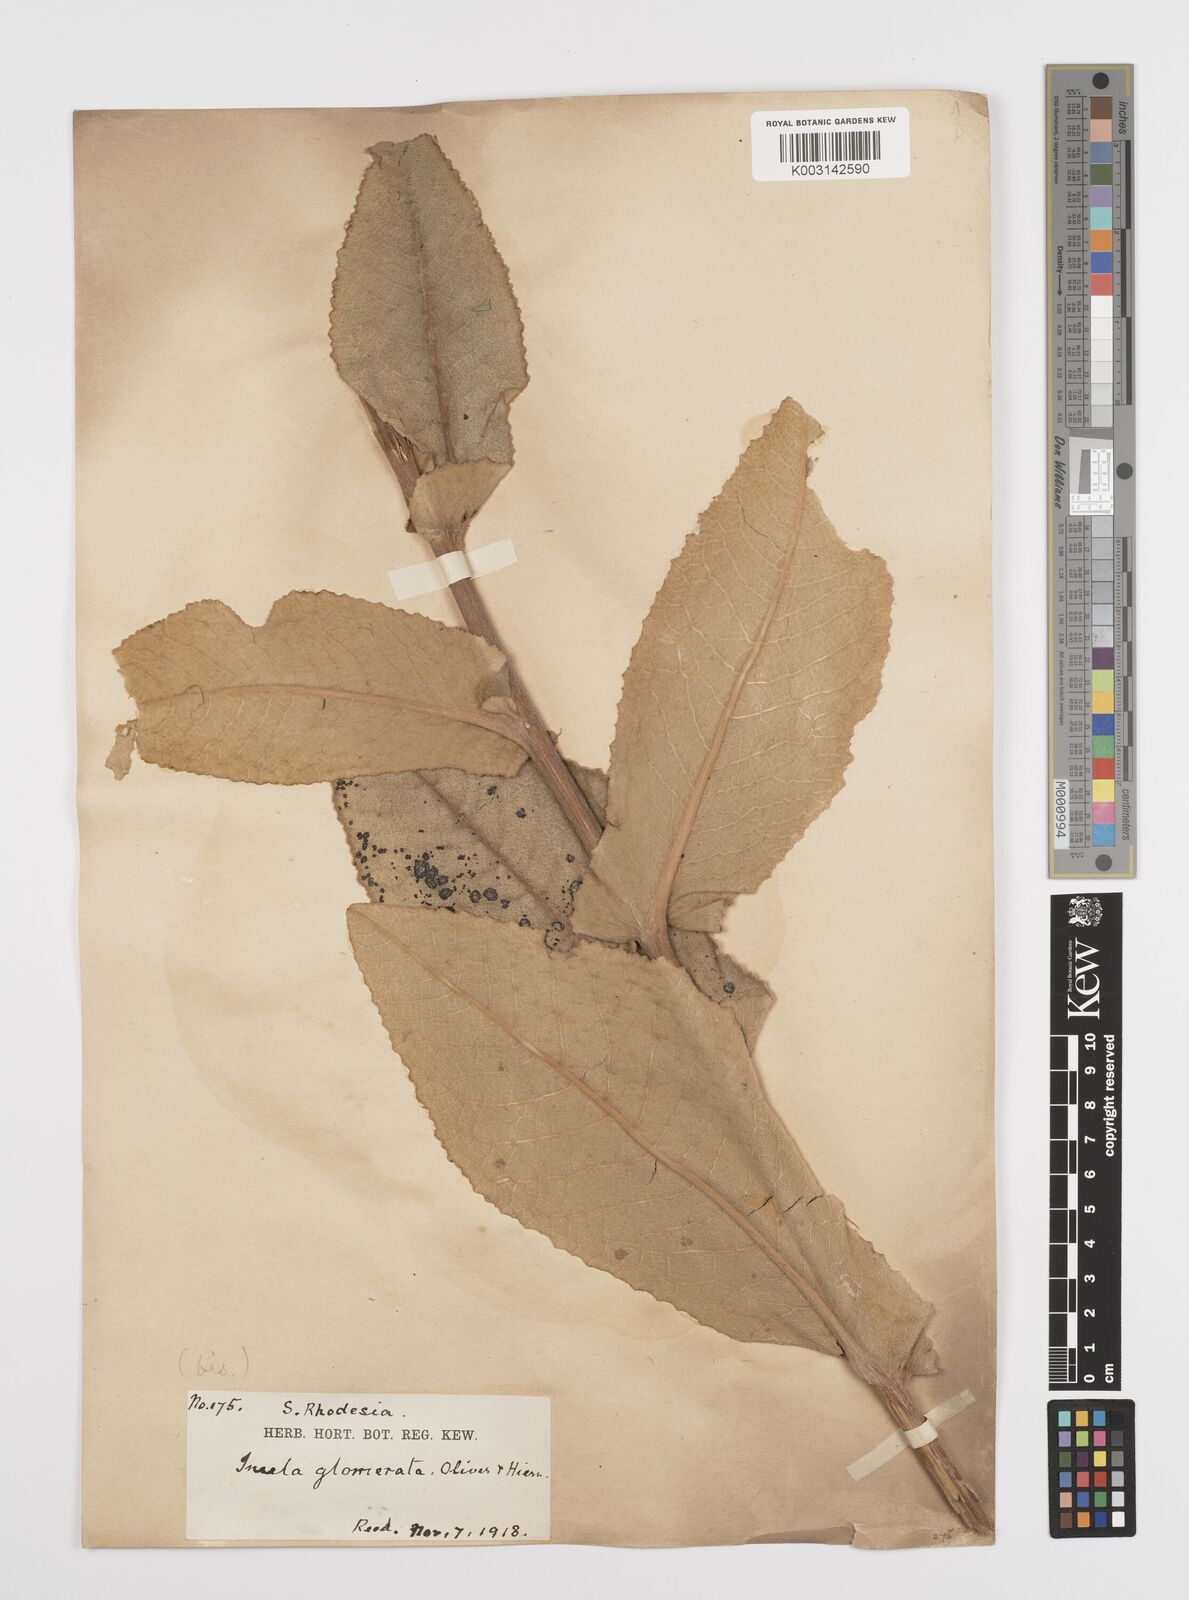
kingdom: Plantae
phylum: Tracheophyta
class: Magnoliopsida
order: Asterales
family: Asteraceae
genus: Inula
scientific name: Inula glomerata
